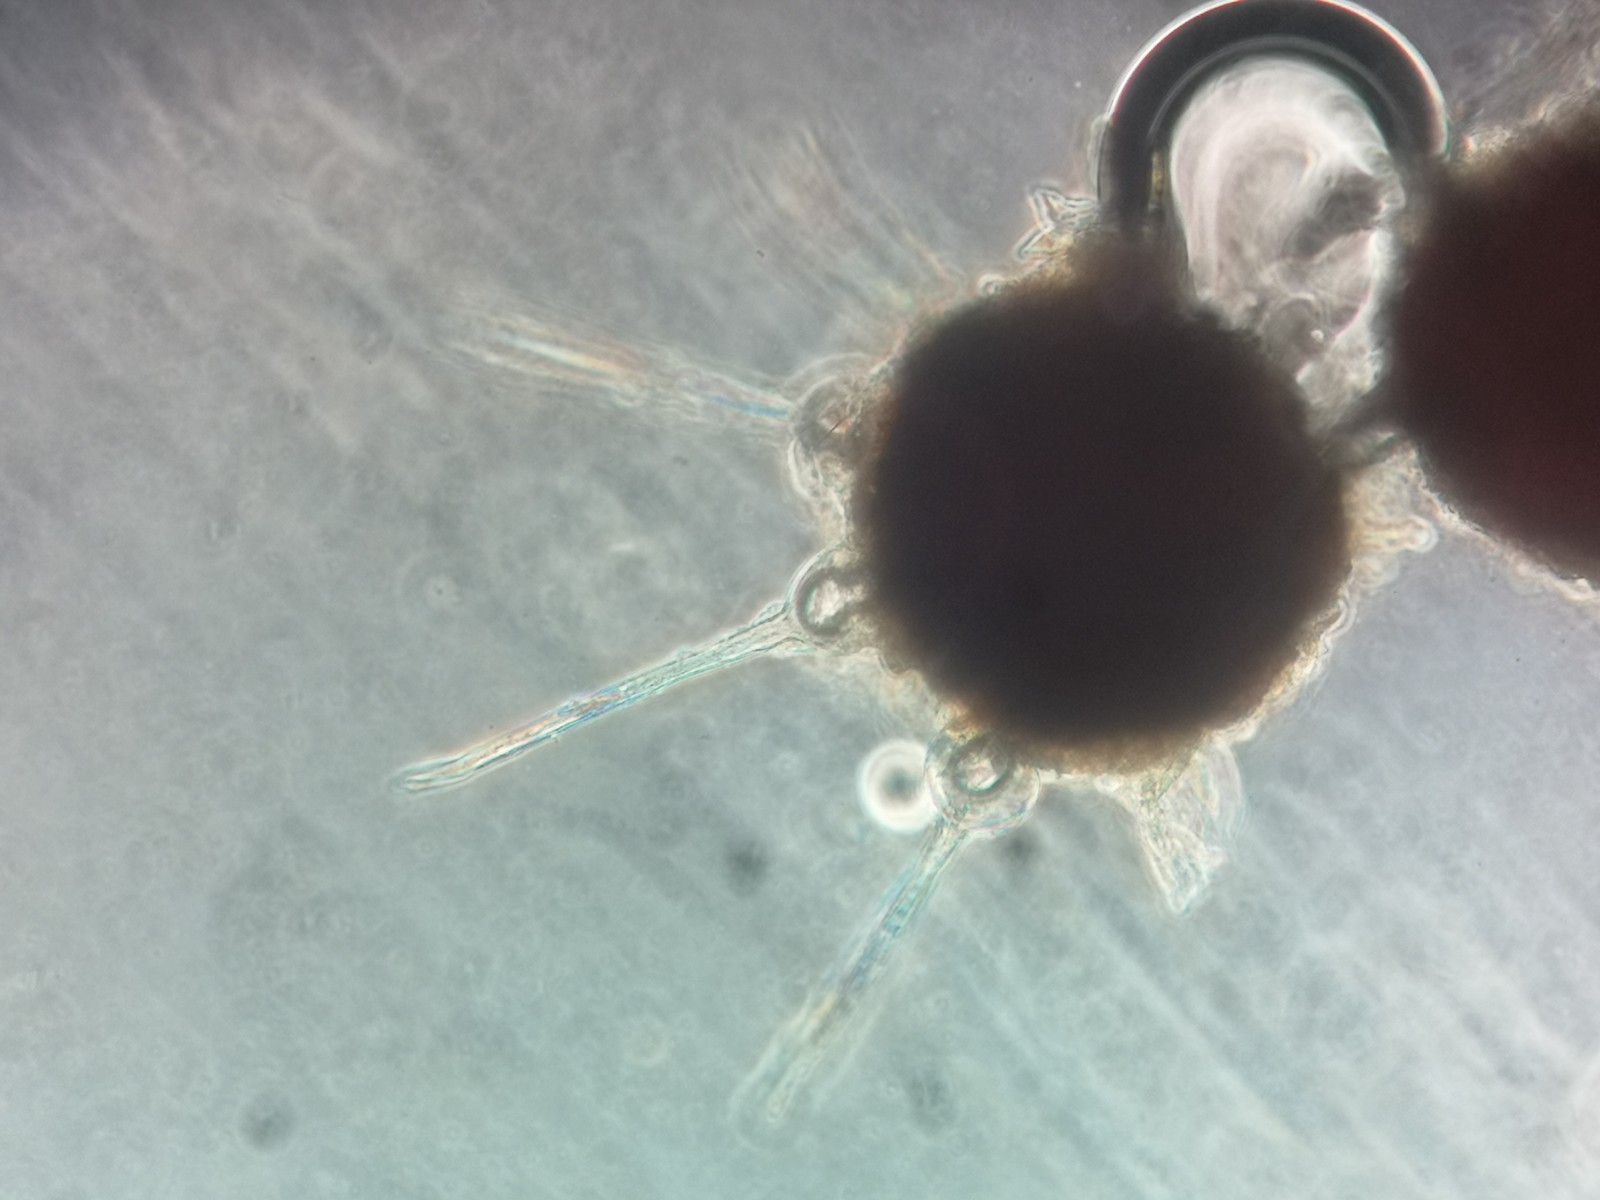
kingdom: Fungi
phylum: Ascomycota
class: Leotiomycetes
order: Helotiales
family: Erysiphaceae
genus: Phyllactinia
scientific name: Phyllactinia mali
